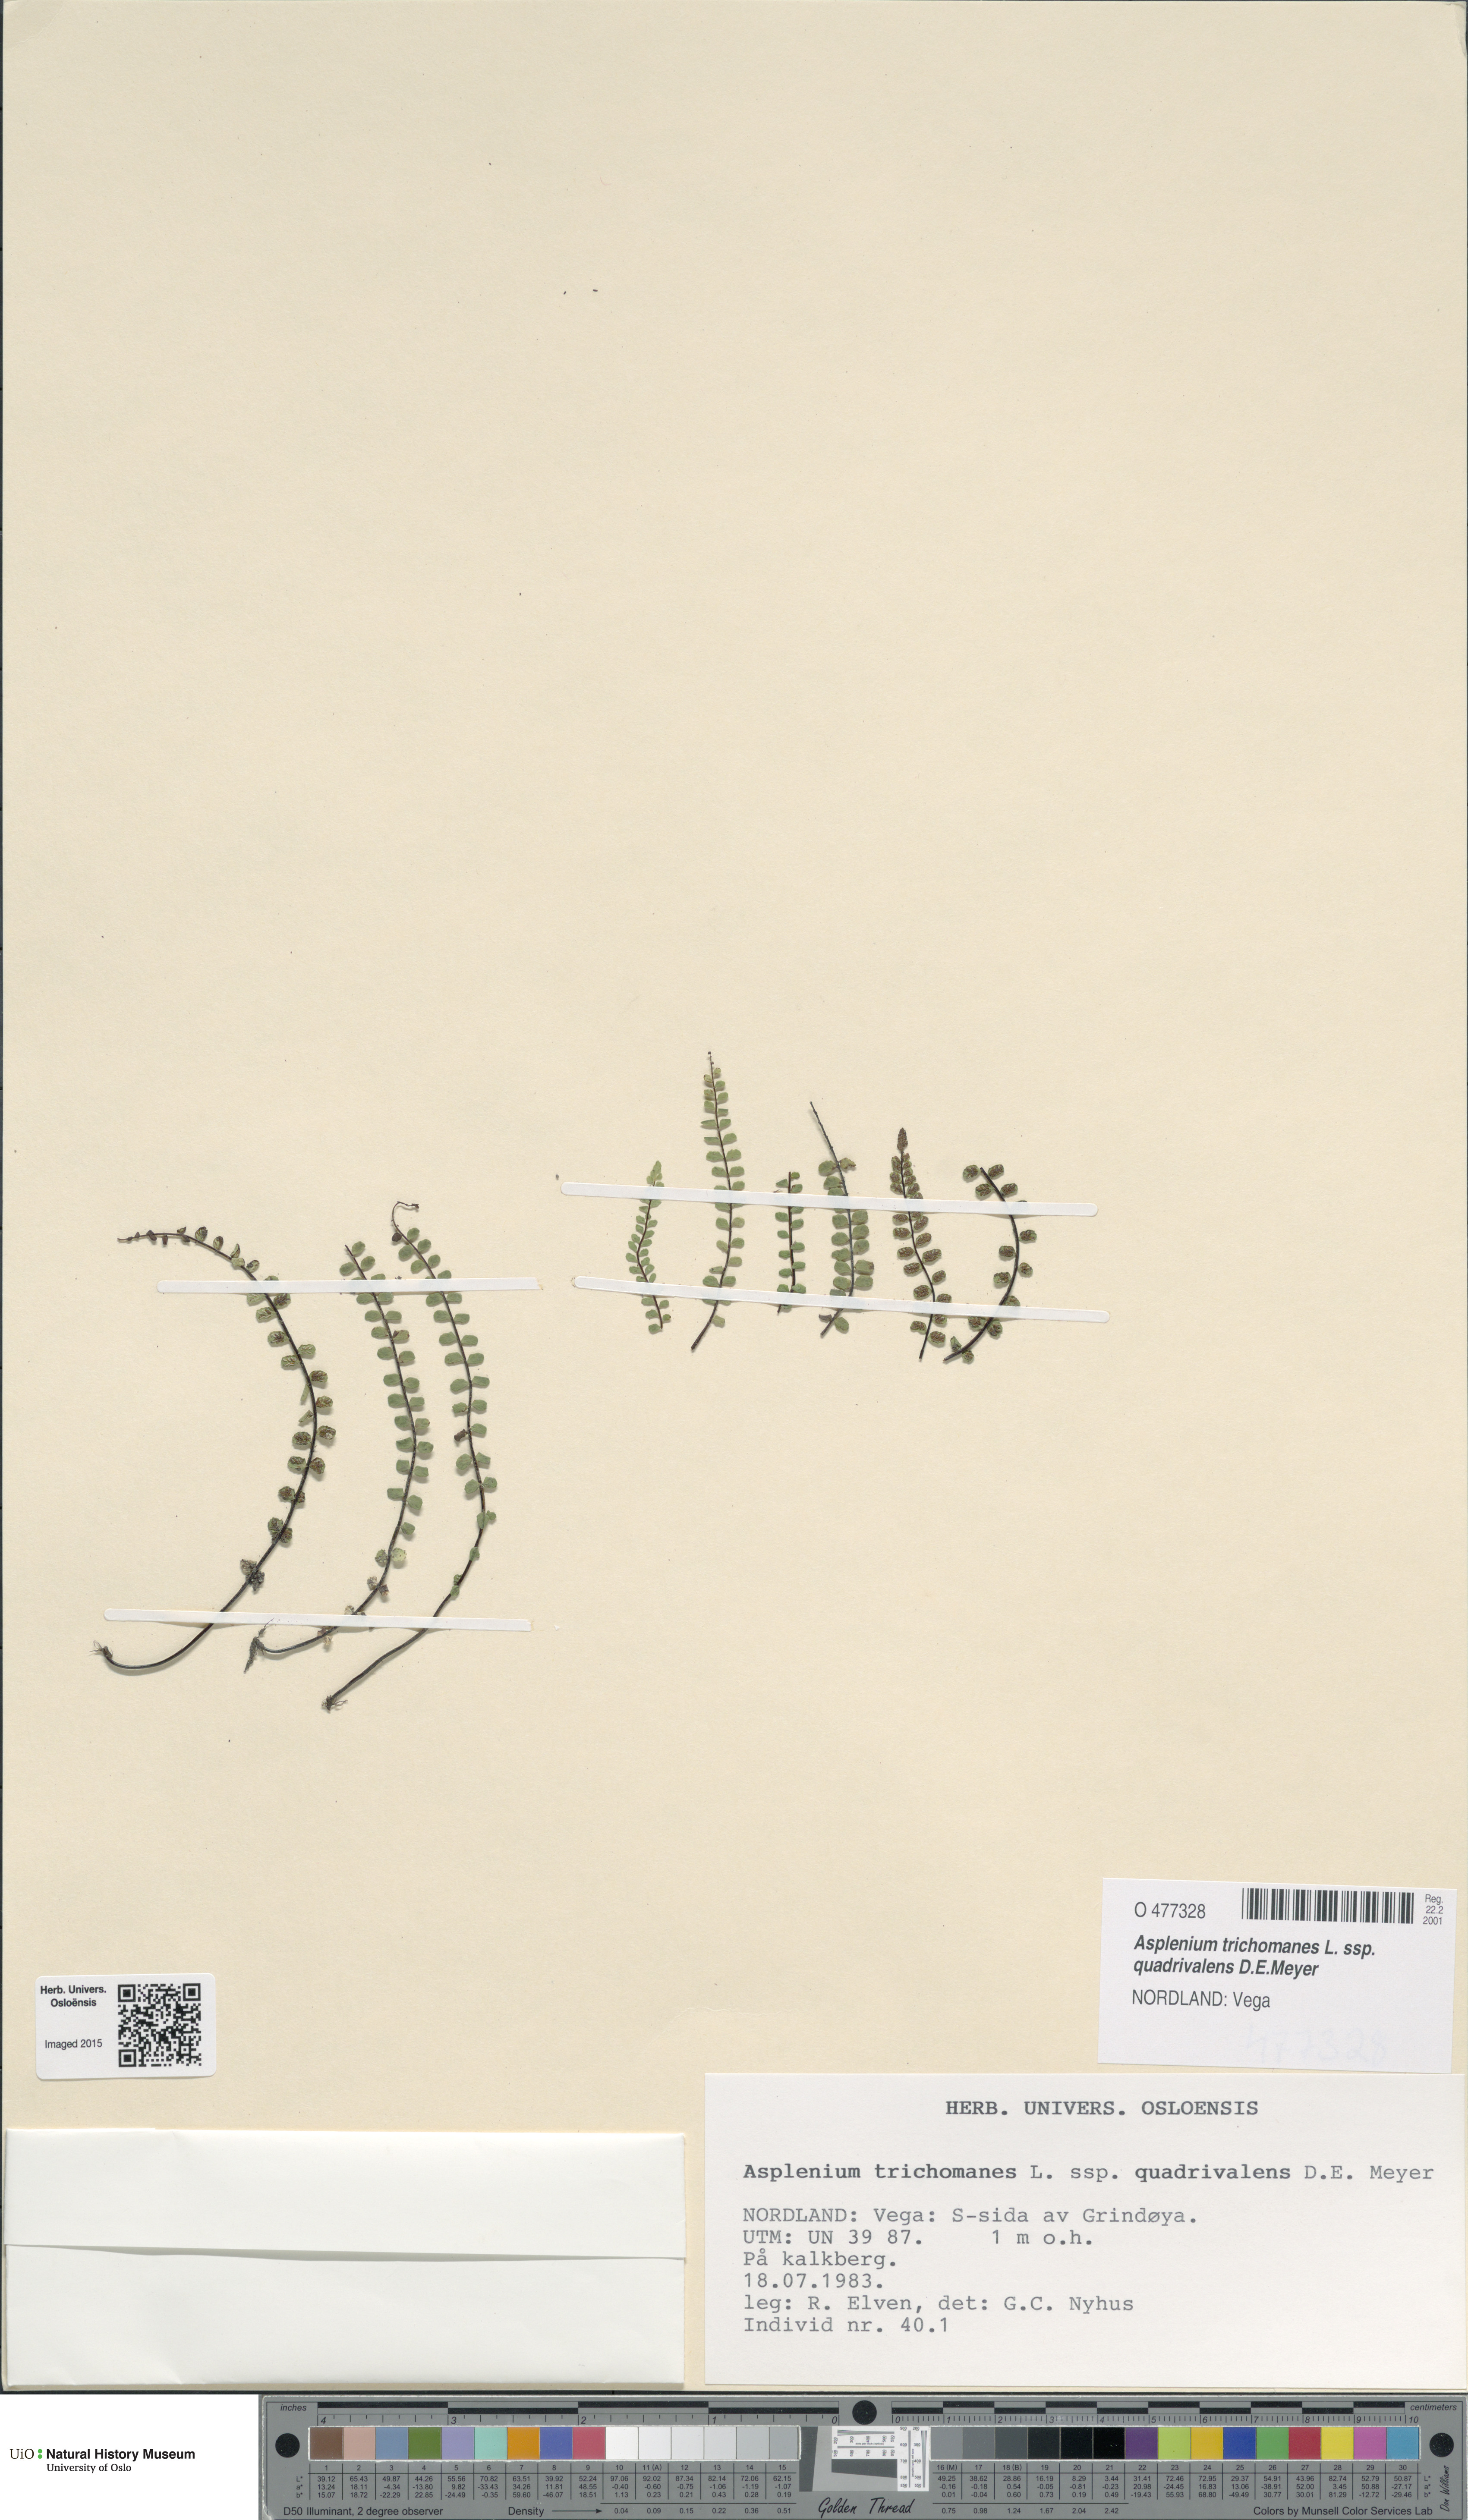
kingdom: Plantae
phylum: Tracheophyta
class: Polypodiopsida
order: Polypodiales
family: Aspleniaceae
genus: Asplenium
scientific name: Asplenium quadrivalens
